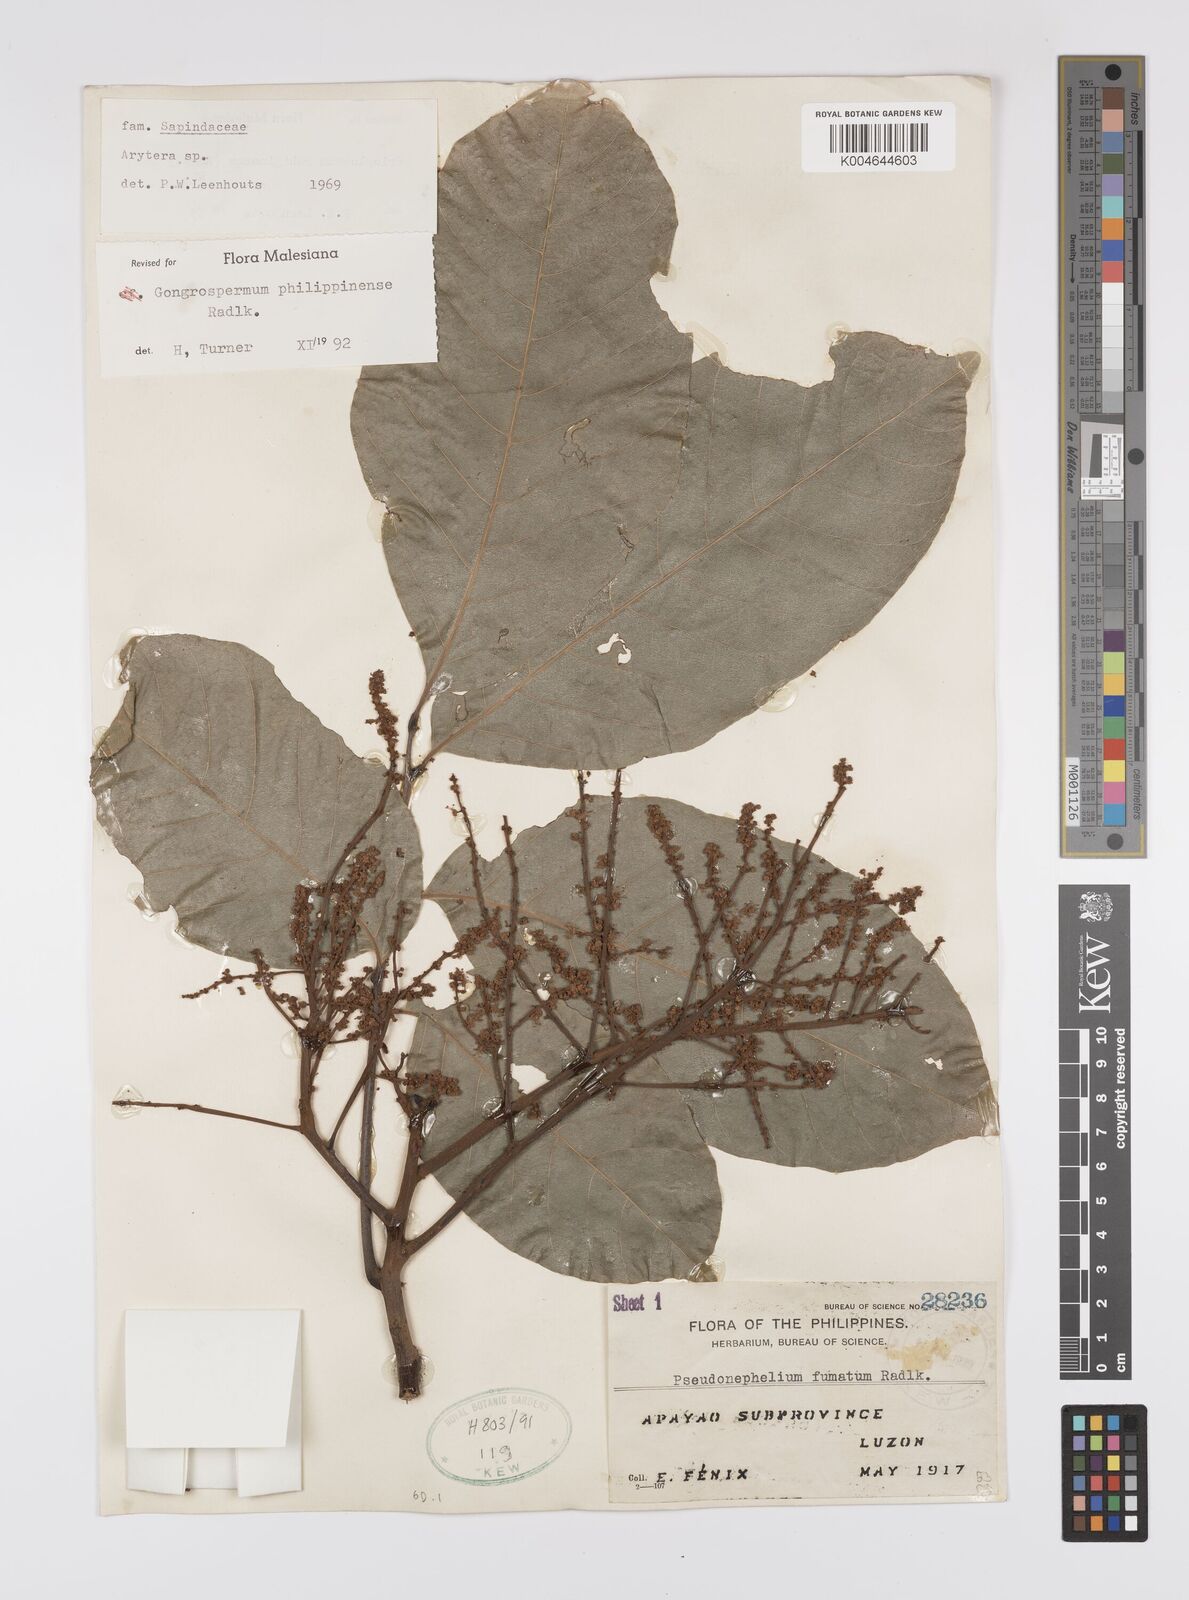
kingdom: Plantae
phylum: Tracheophyta
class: Magnoliopsida
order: Sapindales
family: Sapindaceae
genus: Gongrospermum
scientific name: Gongrospermum philippinense
